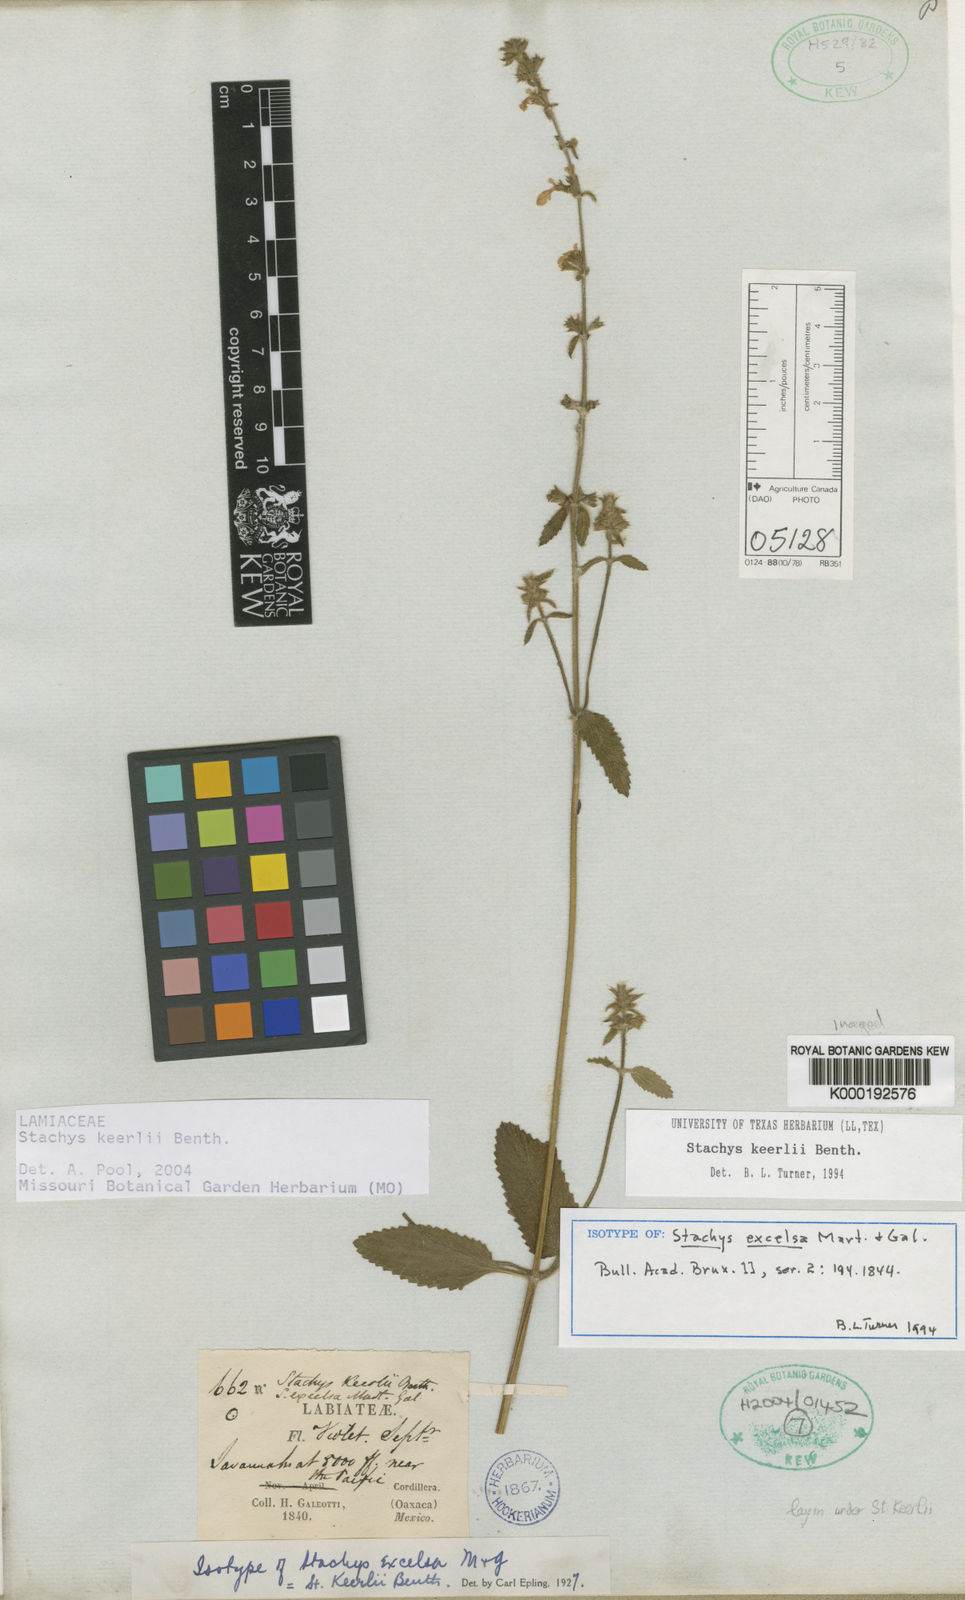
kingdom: Plantae
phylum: Tracheophyta
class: Magnoliopsida
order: Lamiales
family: Lamiaceae
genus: Stachys
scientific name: Stachys keerlii
